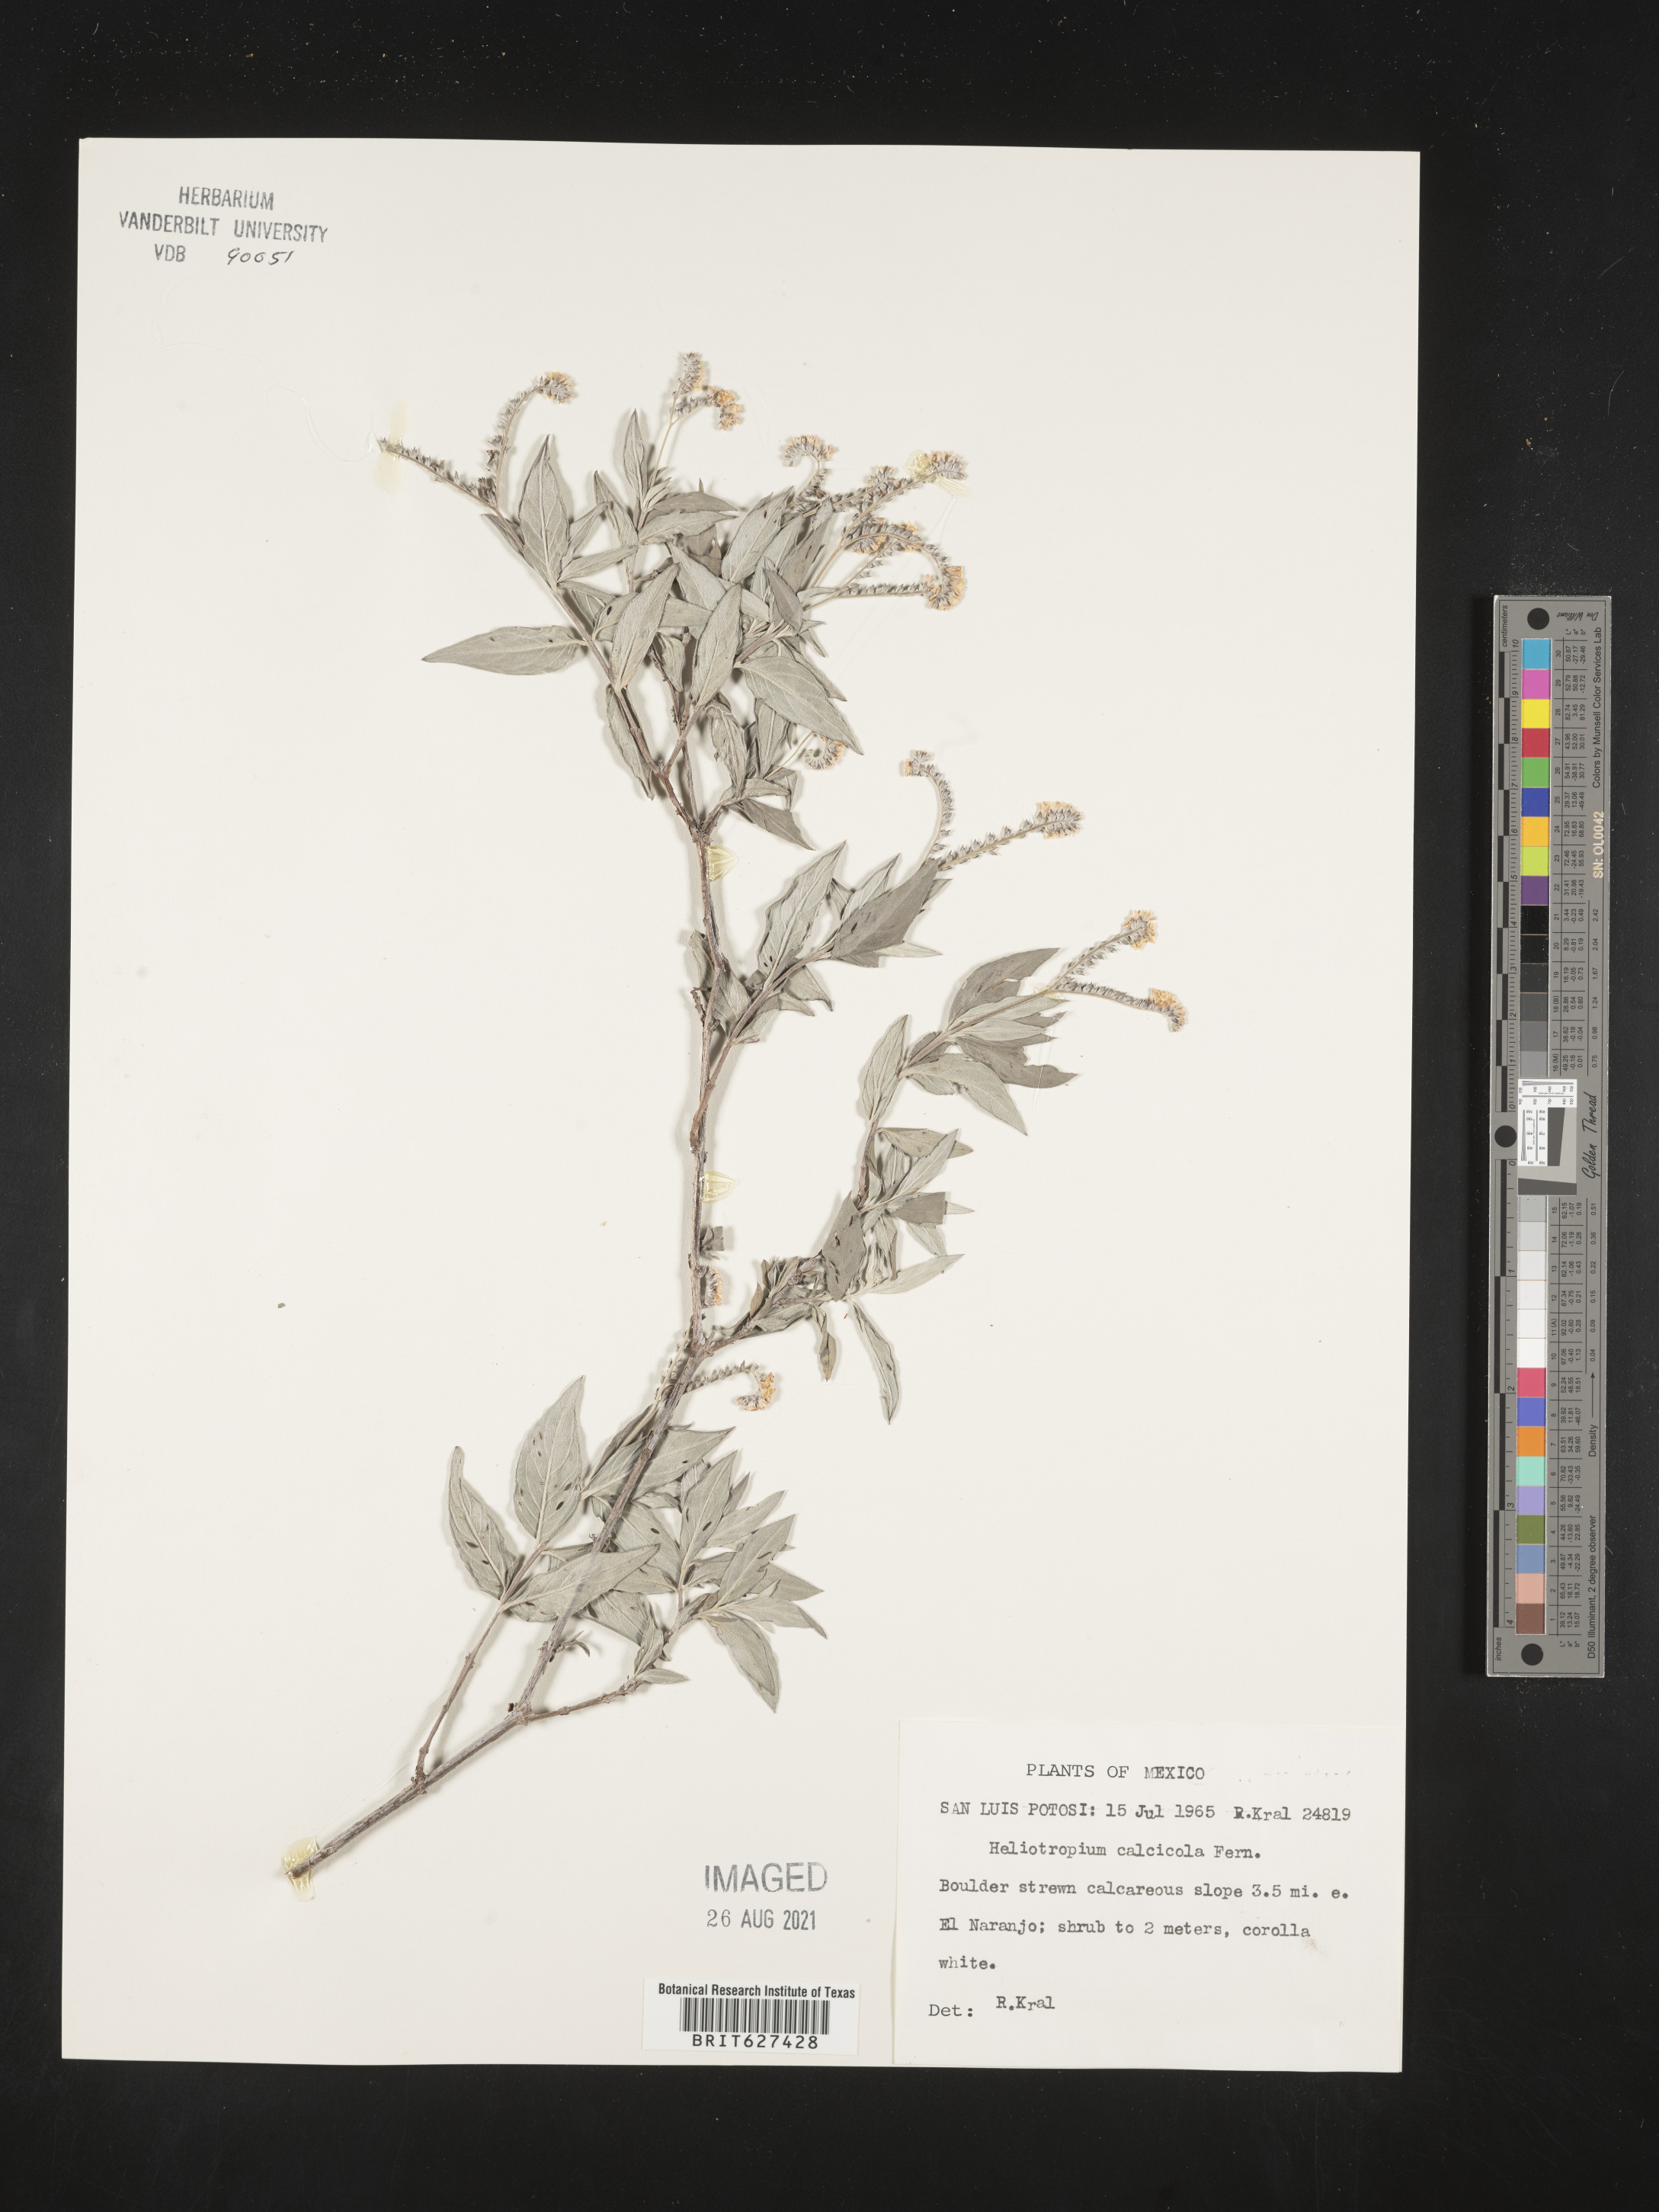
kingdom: Plantae
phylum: Tracheophyta
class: Magnoliopsida
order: Boraginales
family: Heliotropiaceae
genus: Heliotropium
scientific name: Heliotropium
